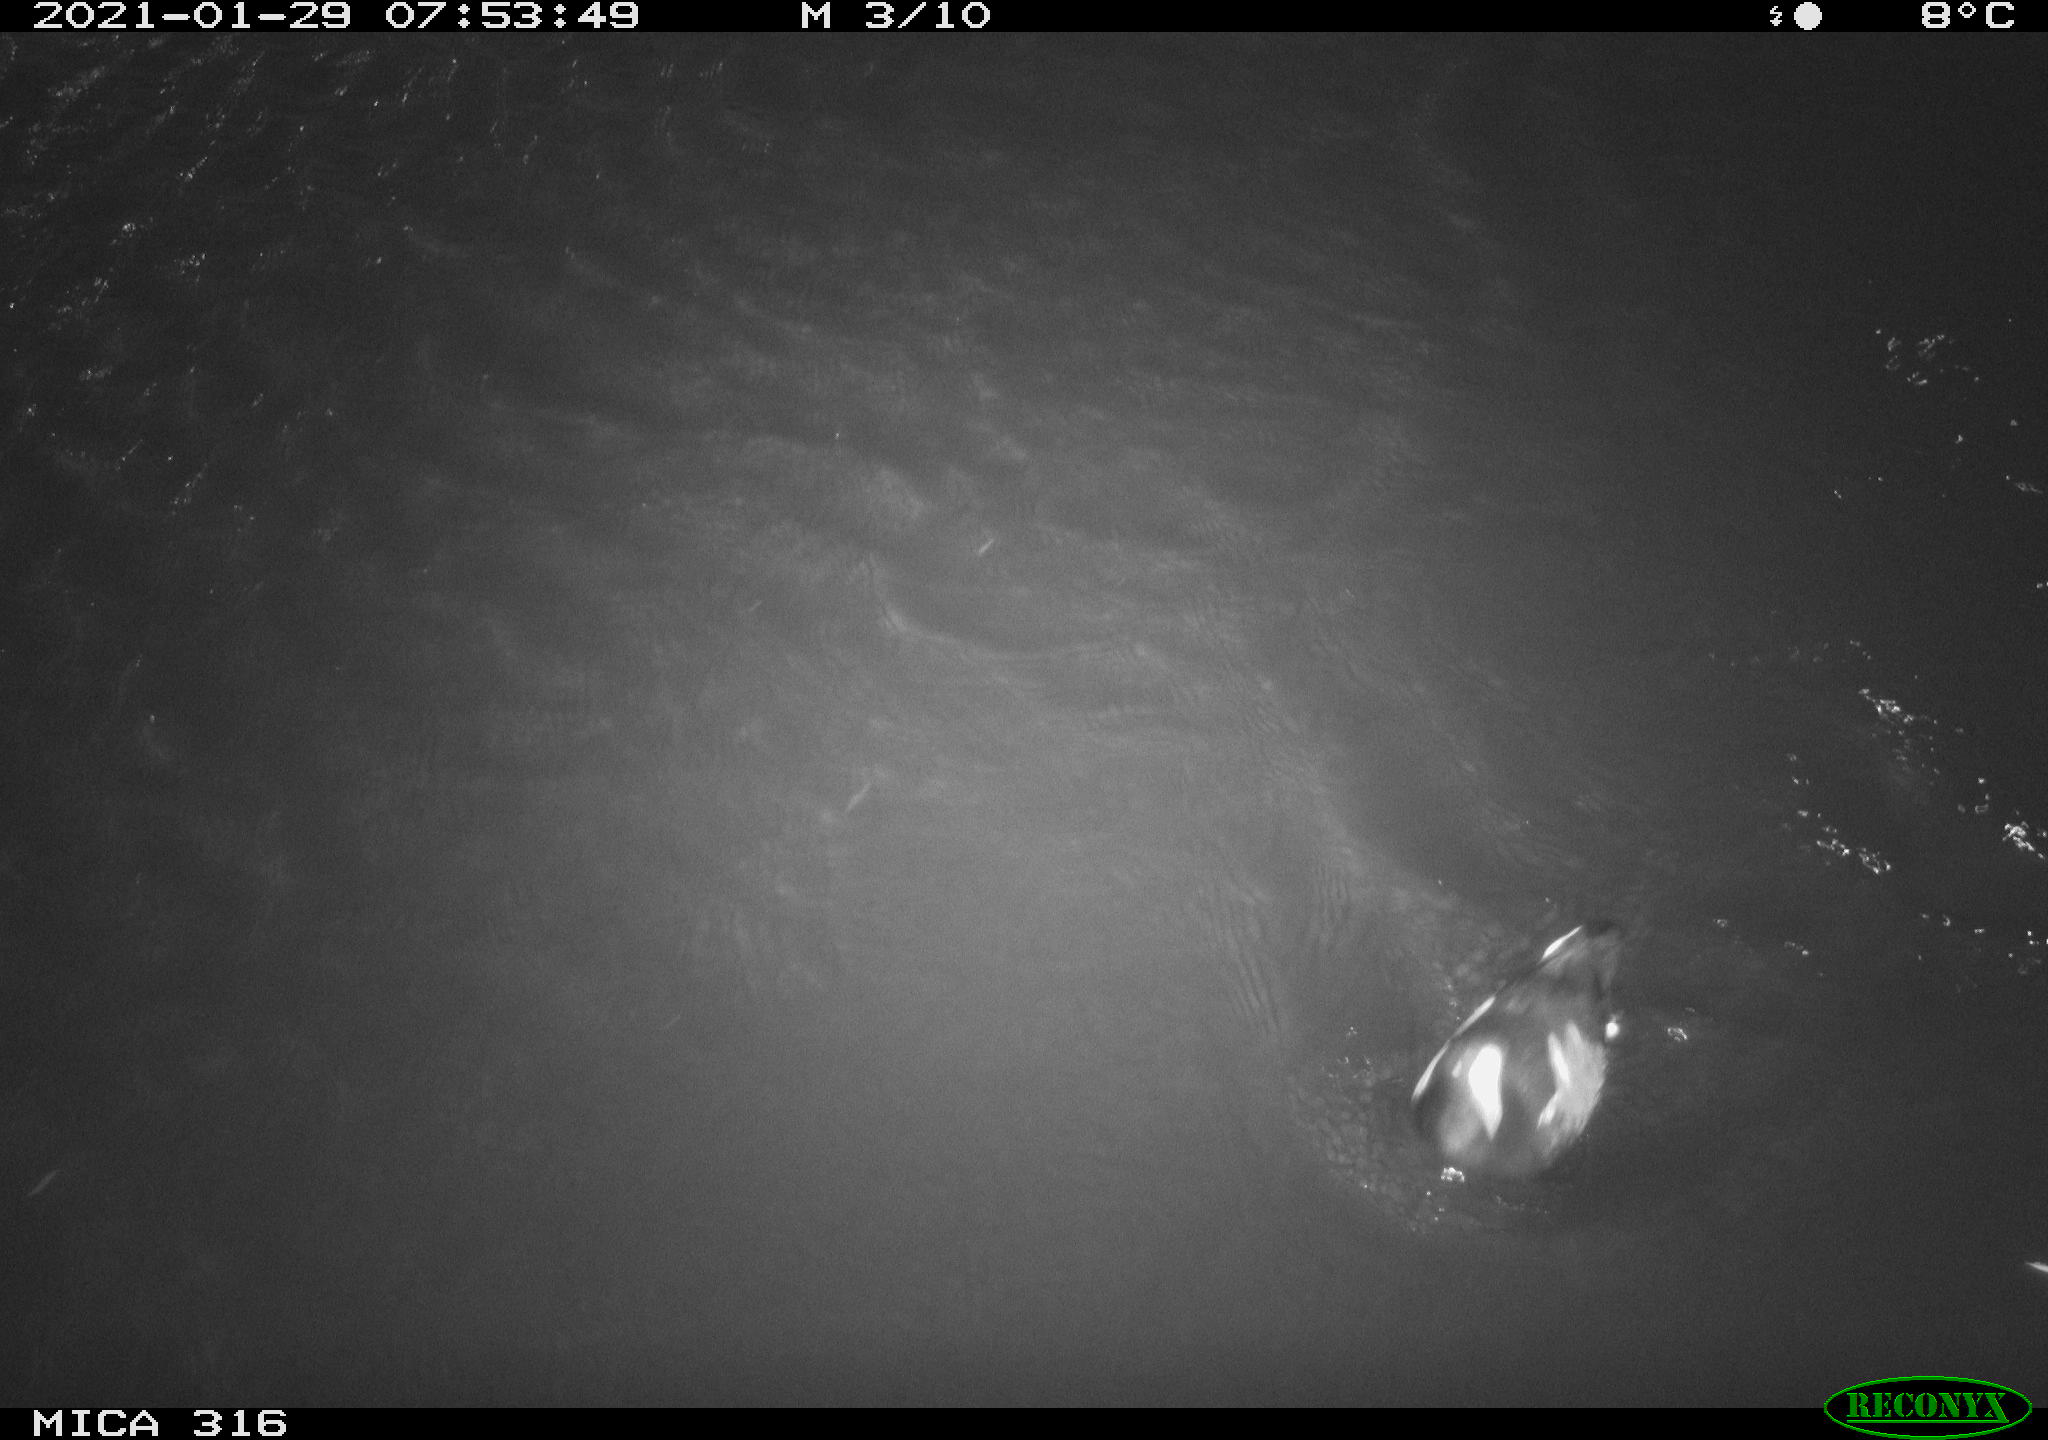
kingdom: Animalia
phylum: Chordata
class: Aves
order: Gruiformes
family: Rallidae
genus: Gallinula
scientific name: Gallinula chloropus
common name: Common moorhen
